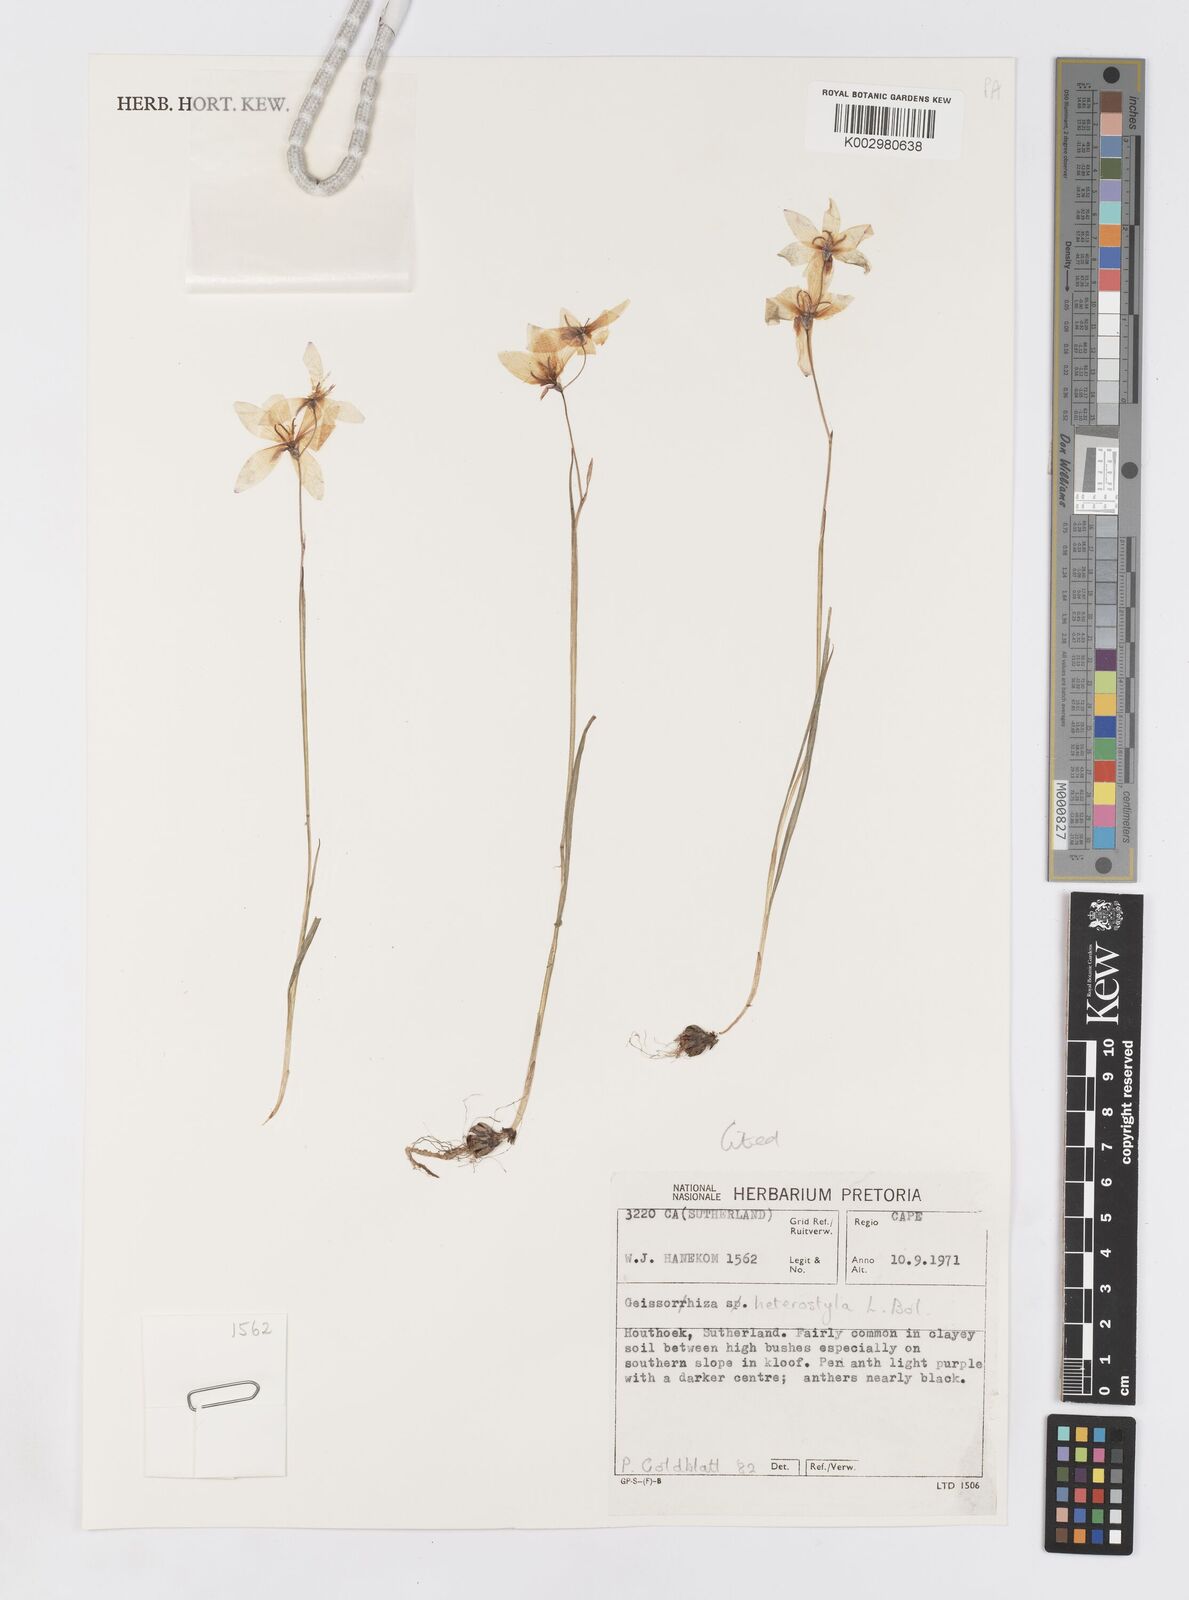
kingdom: Plantae
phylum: Tracheophyta
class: Liliopsida
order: Asparagales
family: Iridaceae
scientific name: Iridaceae
